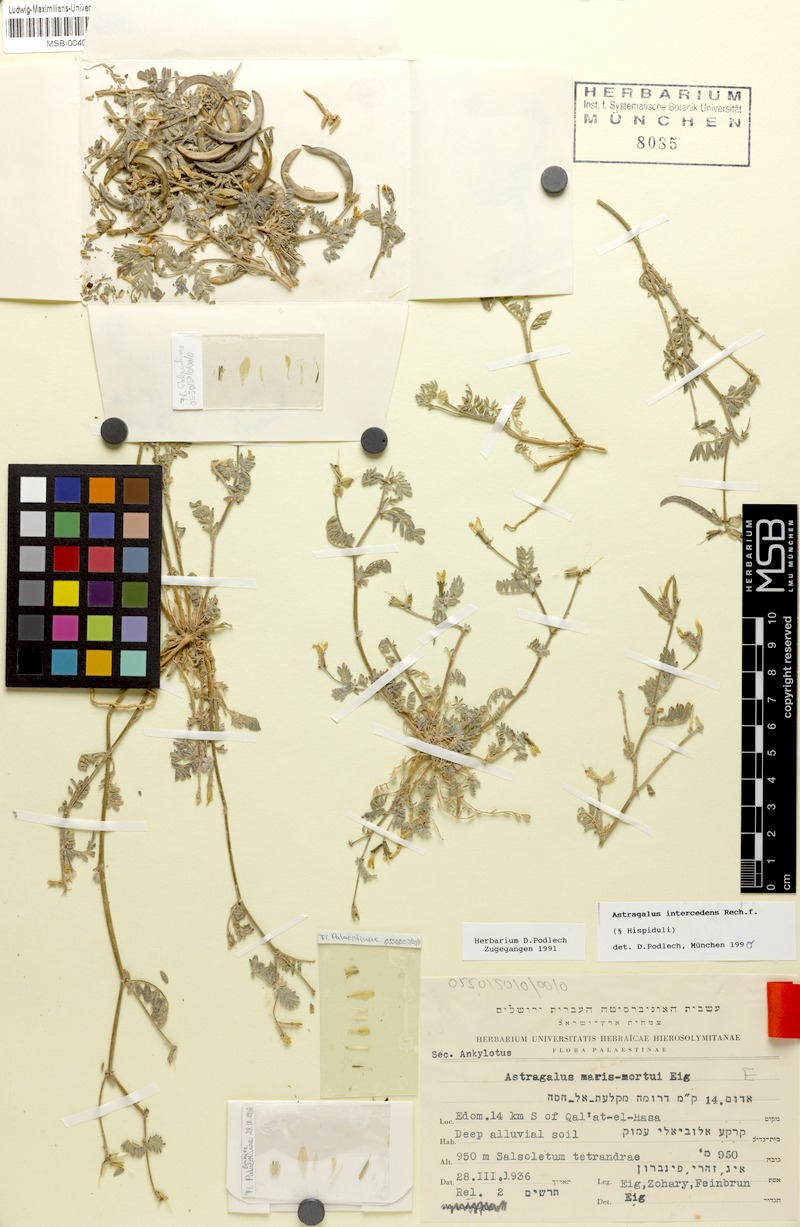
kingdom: Plantae
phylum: Tracheophyta
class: Magnoliopsida
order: Fabales
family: Fabaceae
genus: Astragalus
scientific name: Astragalus intercedens
